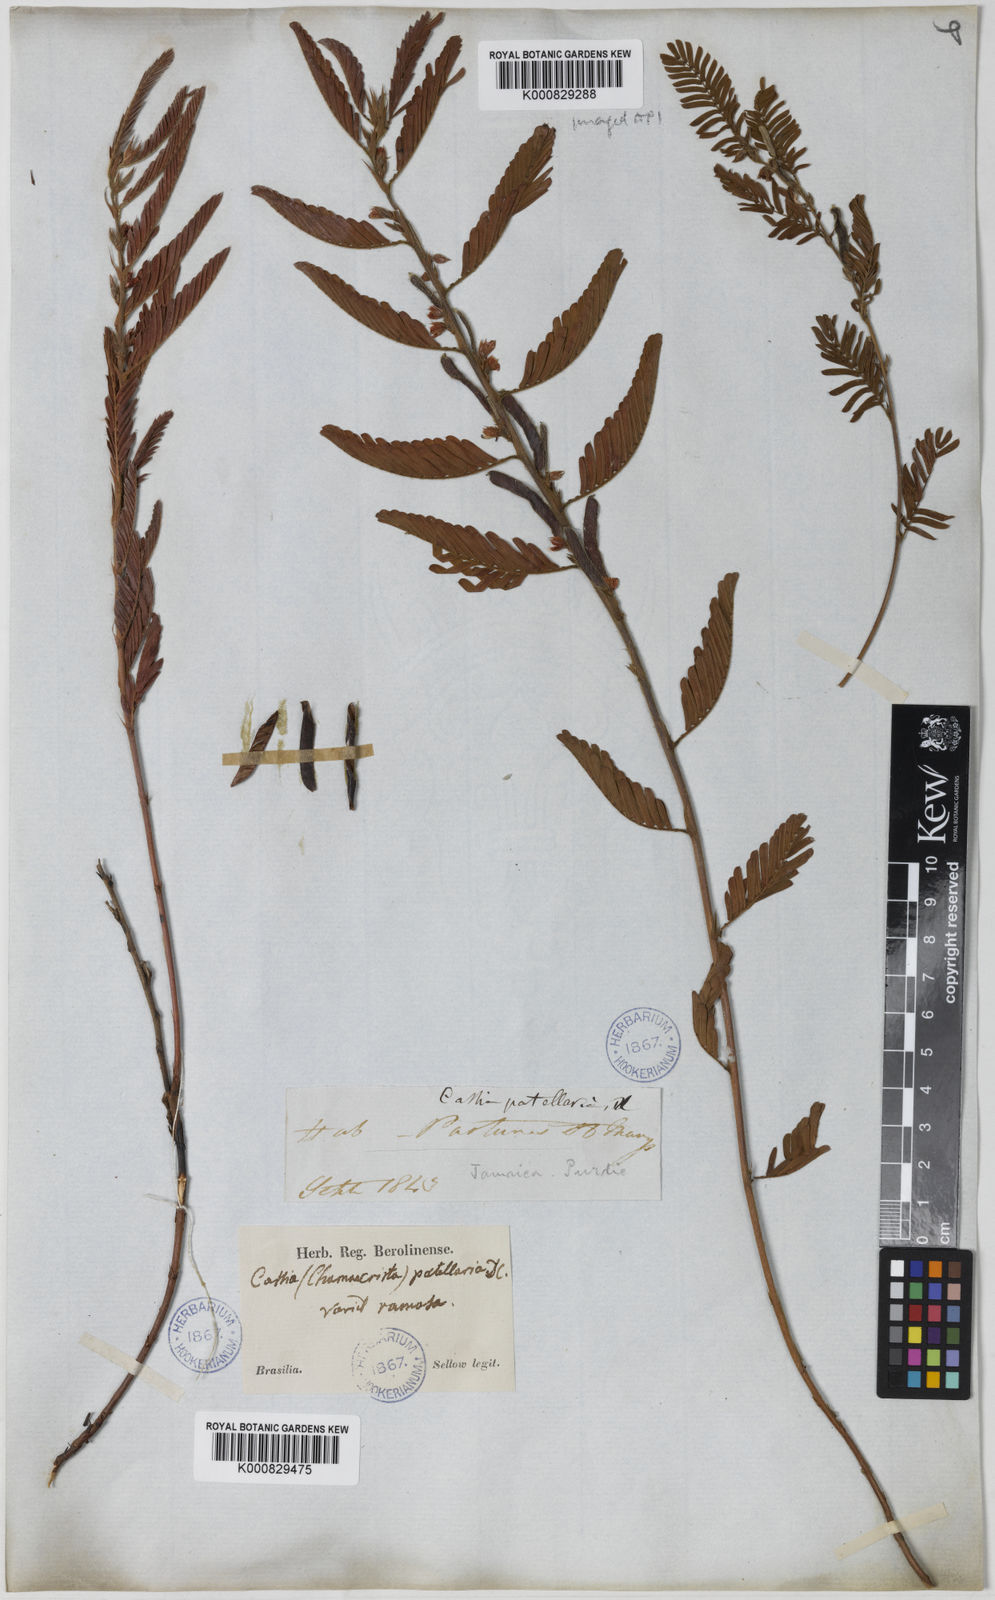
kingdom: Plantae
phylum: Tracheophyta
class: Magnoliopsida
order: Fabales
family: Fabaceae
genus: Chamaecrista
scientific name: Chamaecrista nictitans
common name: Sensitive cassia
